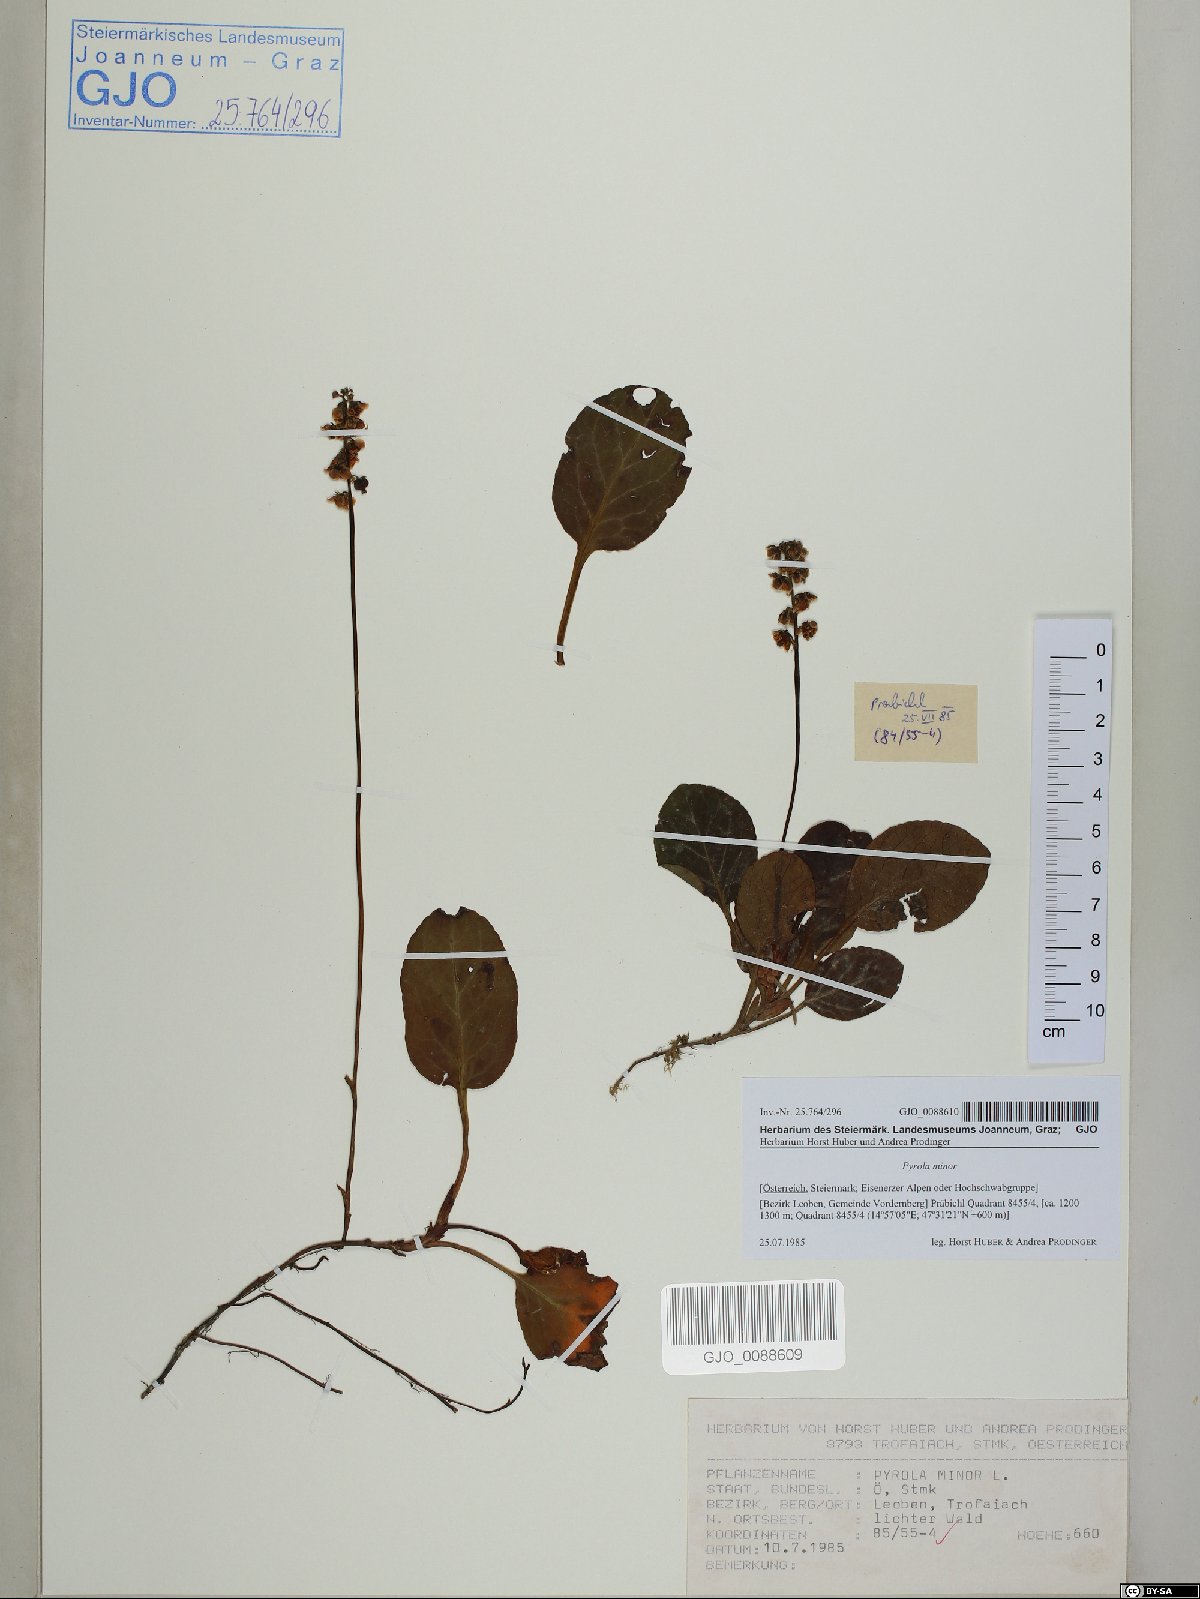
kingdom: Plantae
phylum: Tracheophyta
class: Magnoliopsida
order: Ericales
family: Ericaceae
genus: Pyrola
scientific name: Pyrola minor
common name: Common wintergreen
